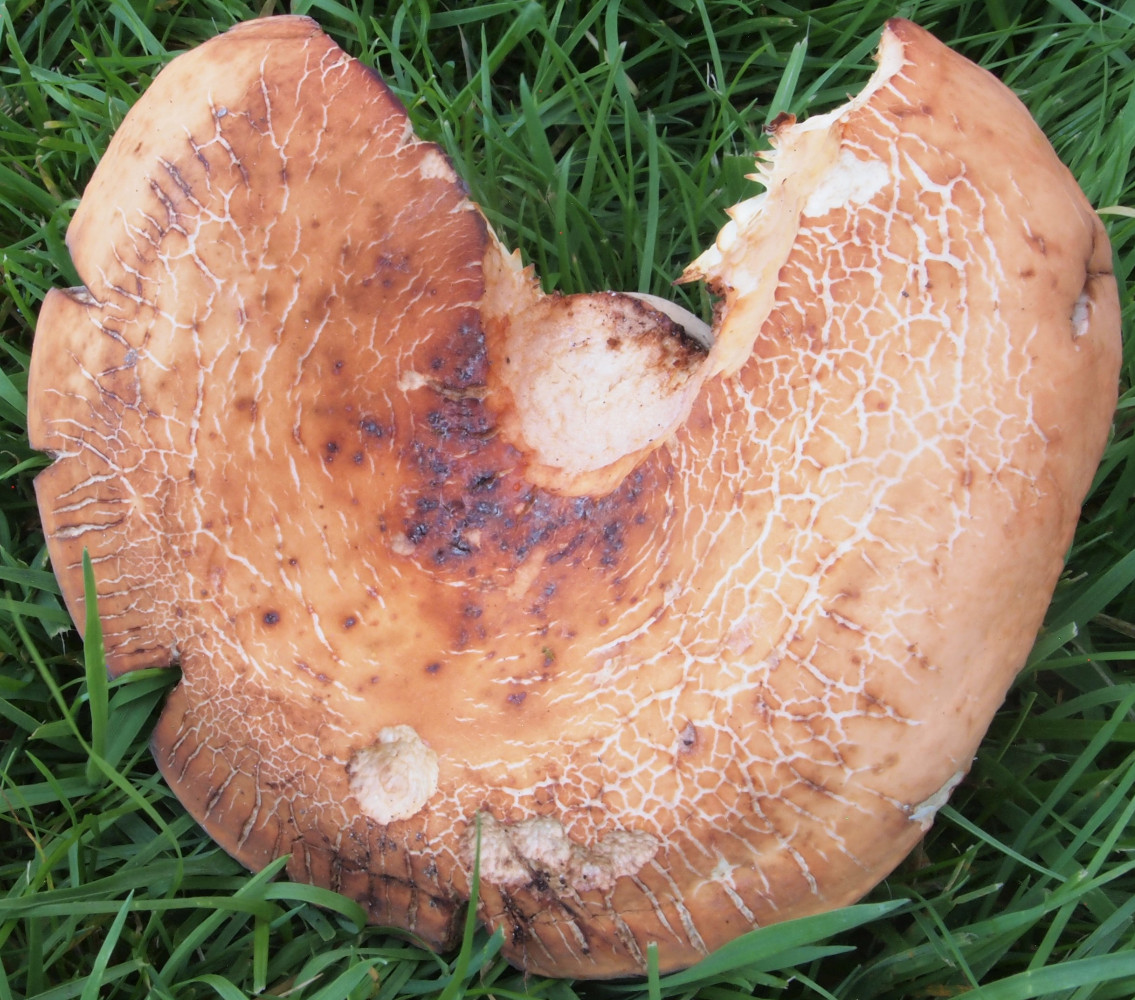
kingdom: Fungi
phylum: Basidiomycota
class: Agaricomycetes
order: Russulales
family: Russulaceae
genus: Lactifluus
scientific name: Lactifluus volemus
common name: spiselig mælkehat
